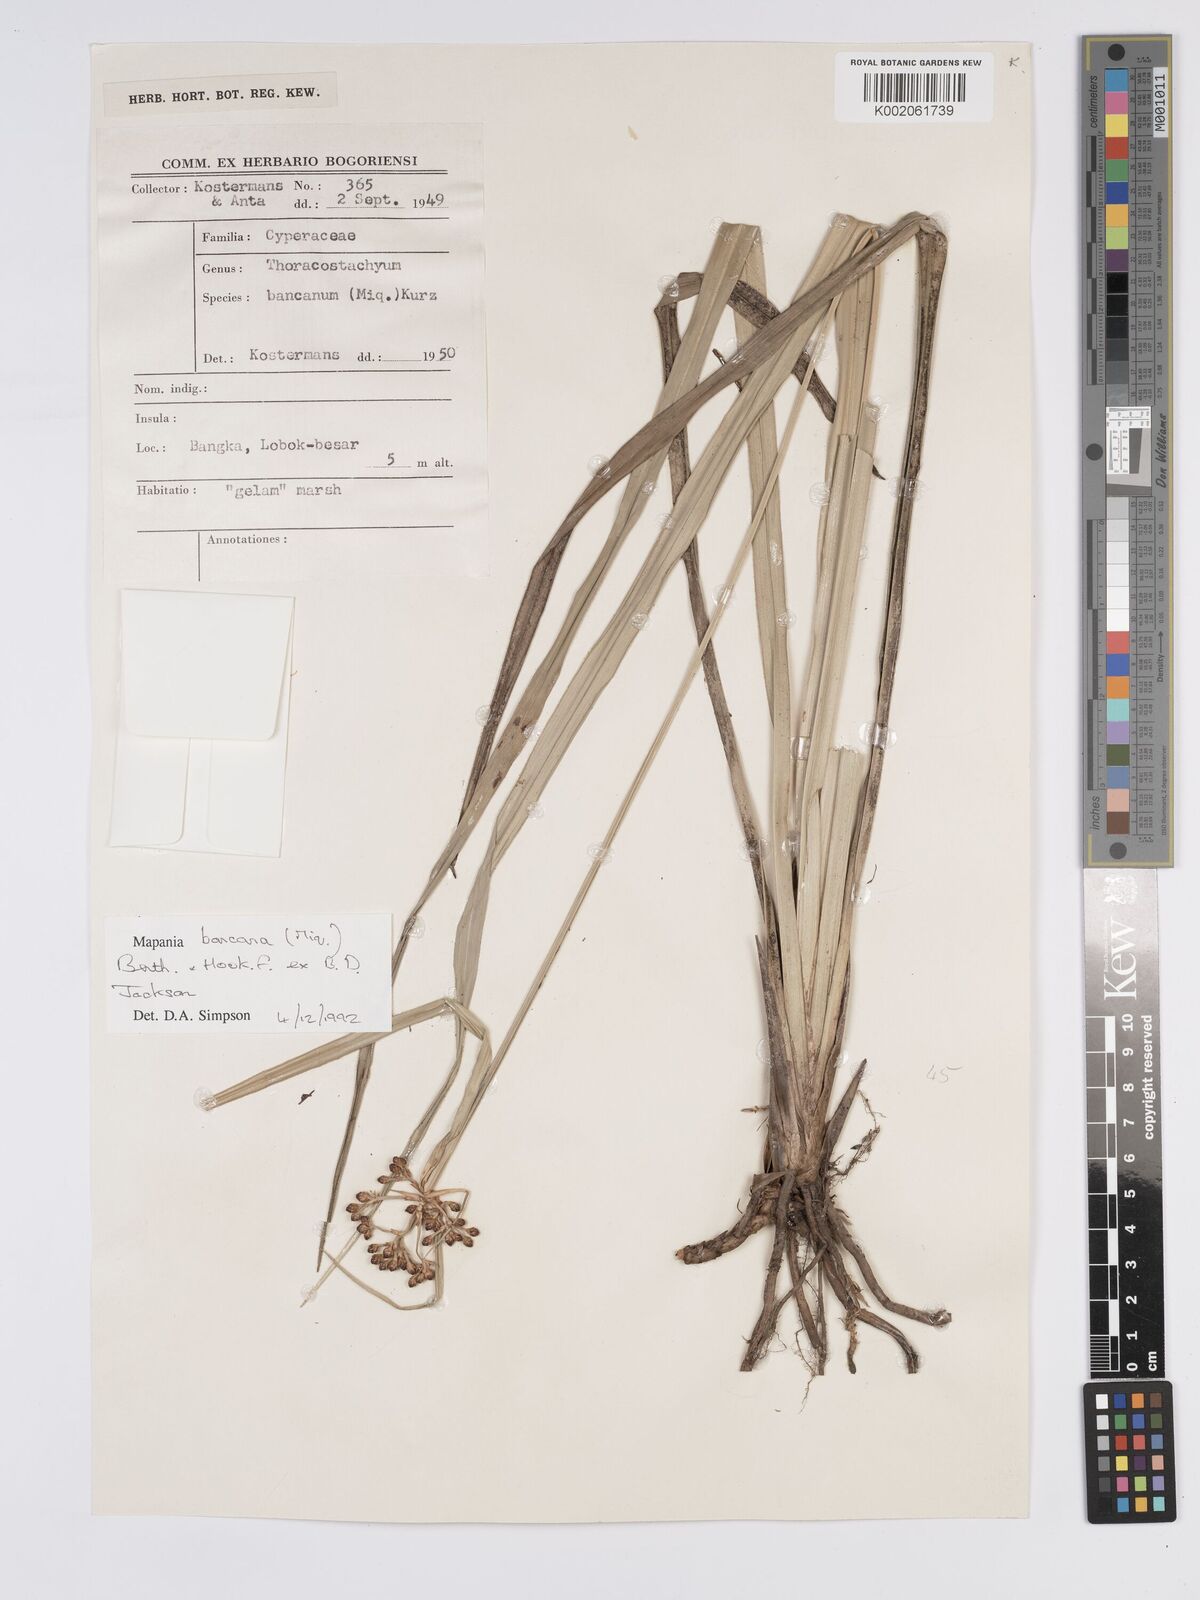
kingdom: Plantae
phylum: Tracheophyta
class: Liliopsida
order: Poales
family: Cyperaceae
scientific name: Cyperaceae
